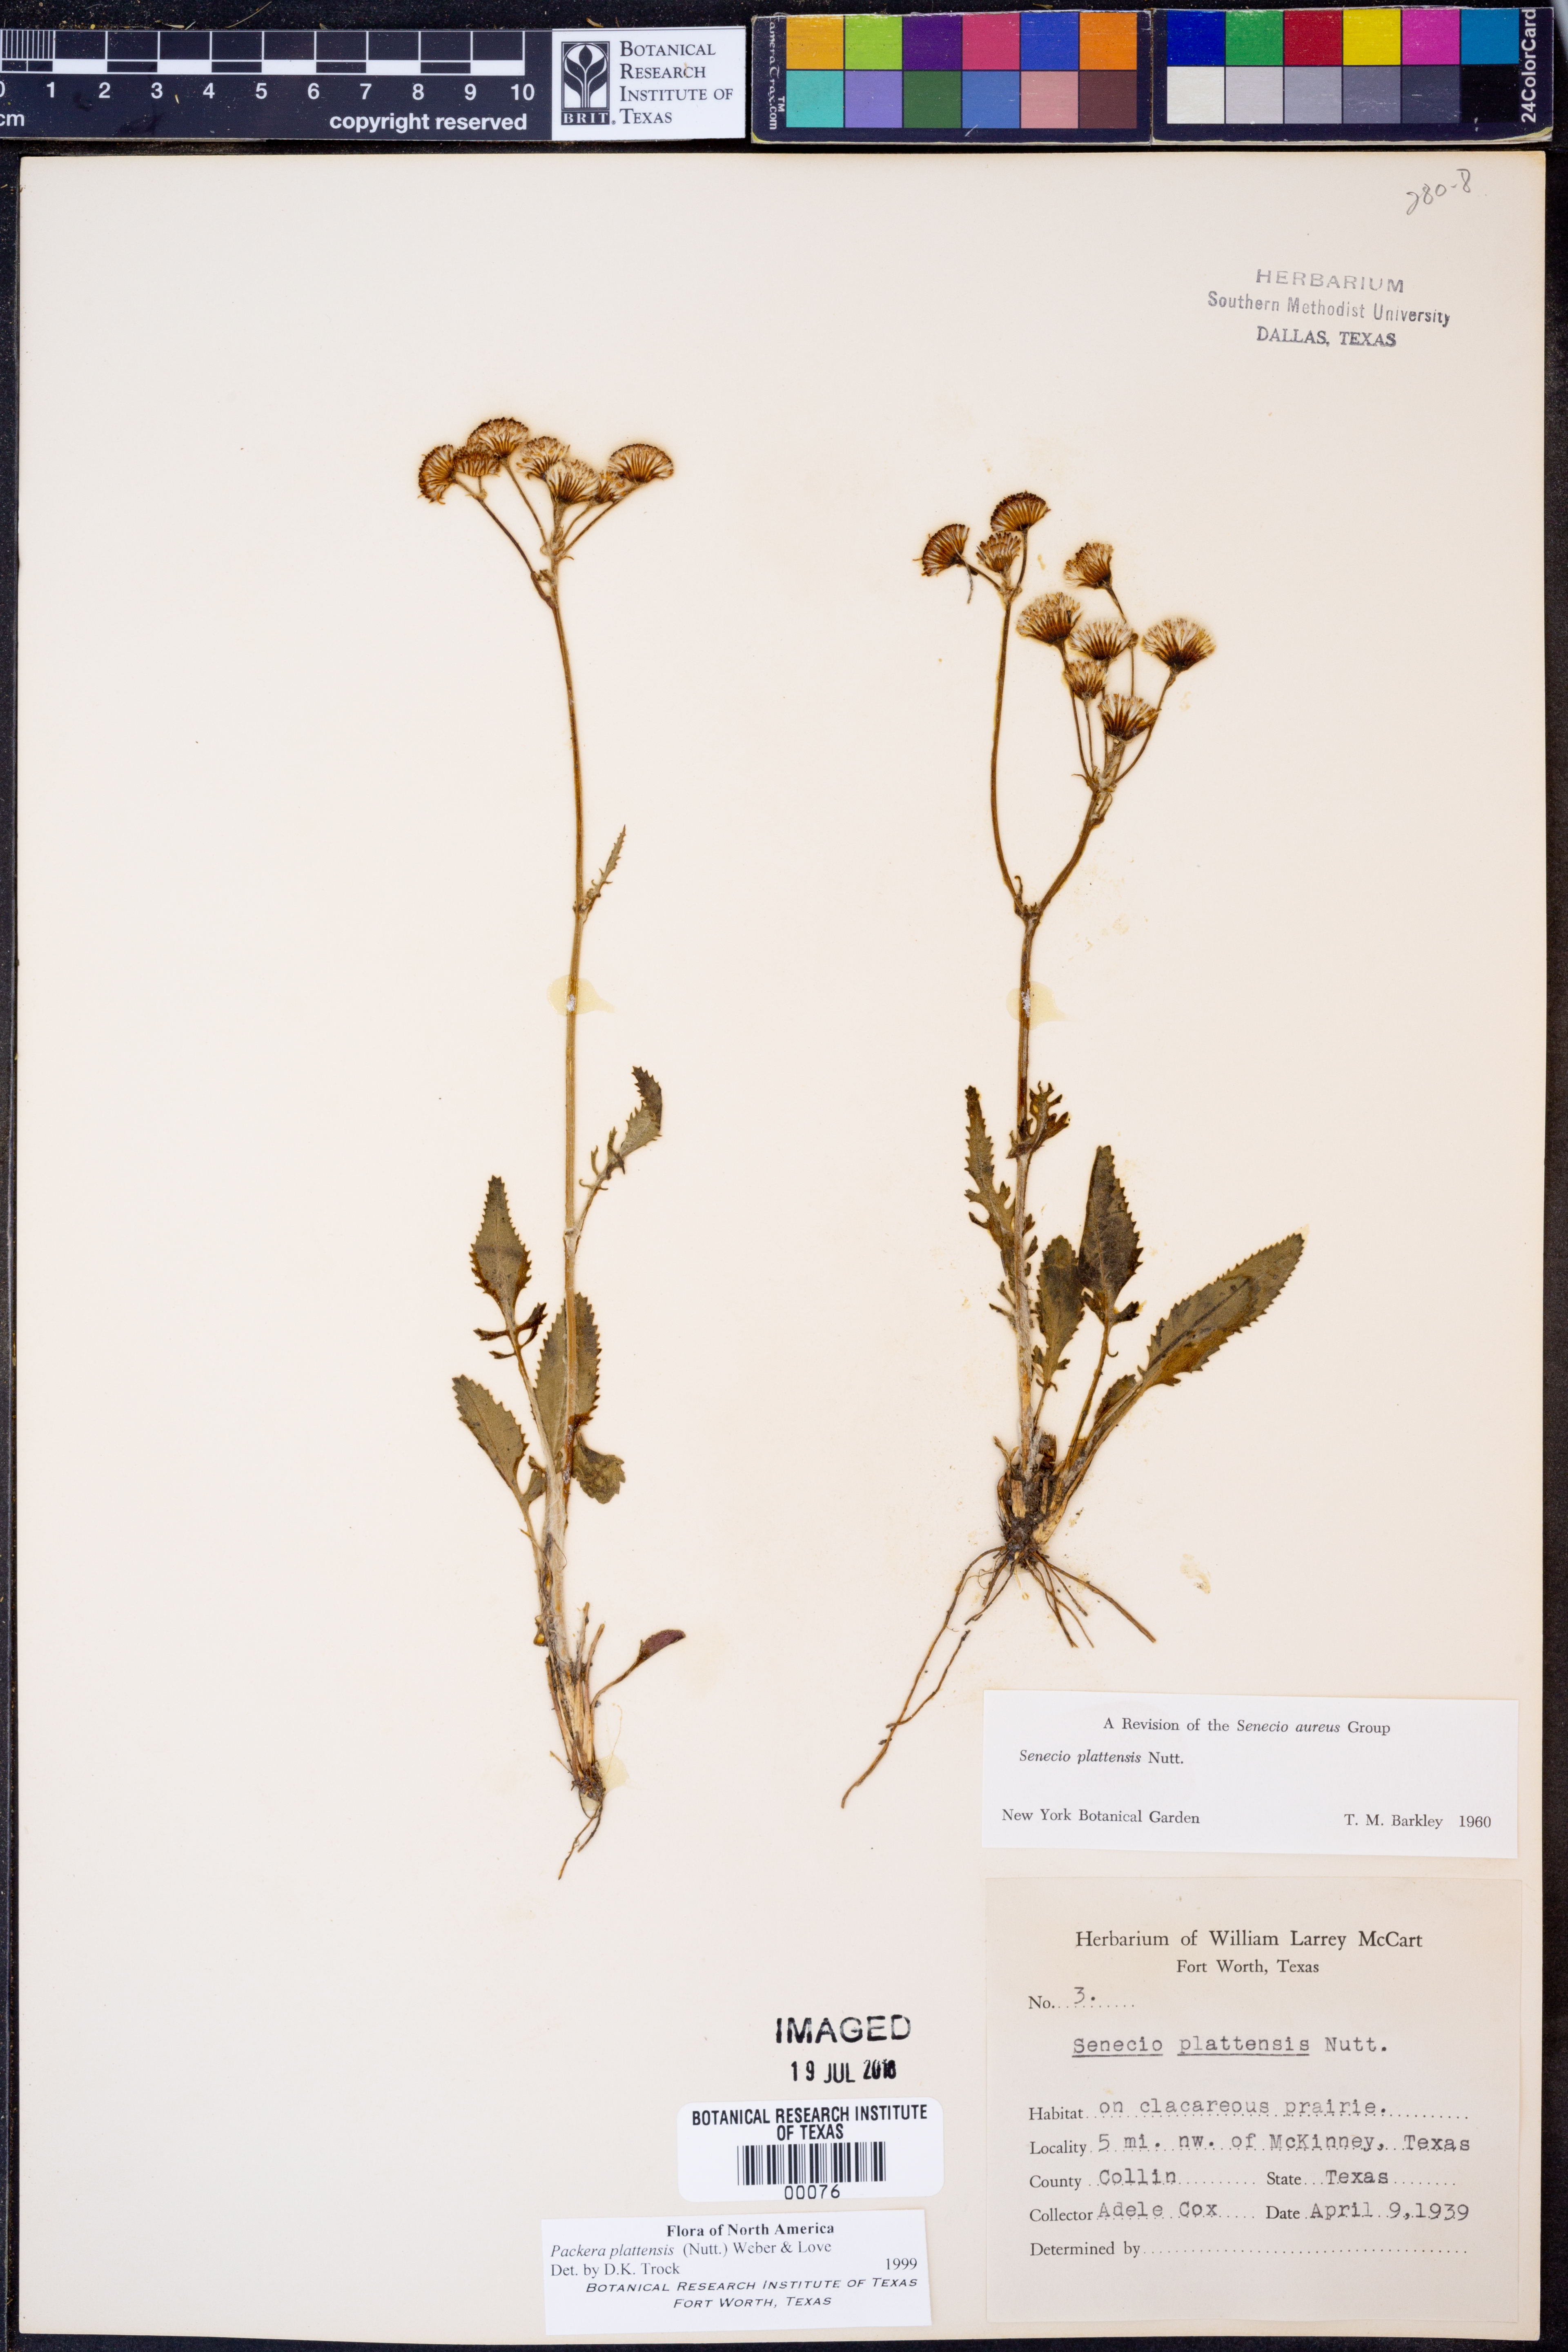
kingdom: Plantae
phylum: Tracheophyta
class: Magnoliopsida
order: Asterales
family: Asteraceae
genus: Packera
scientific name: Packera plattensis
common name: Prairie groundsel
